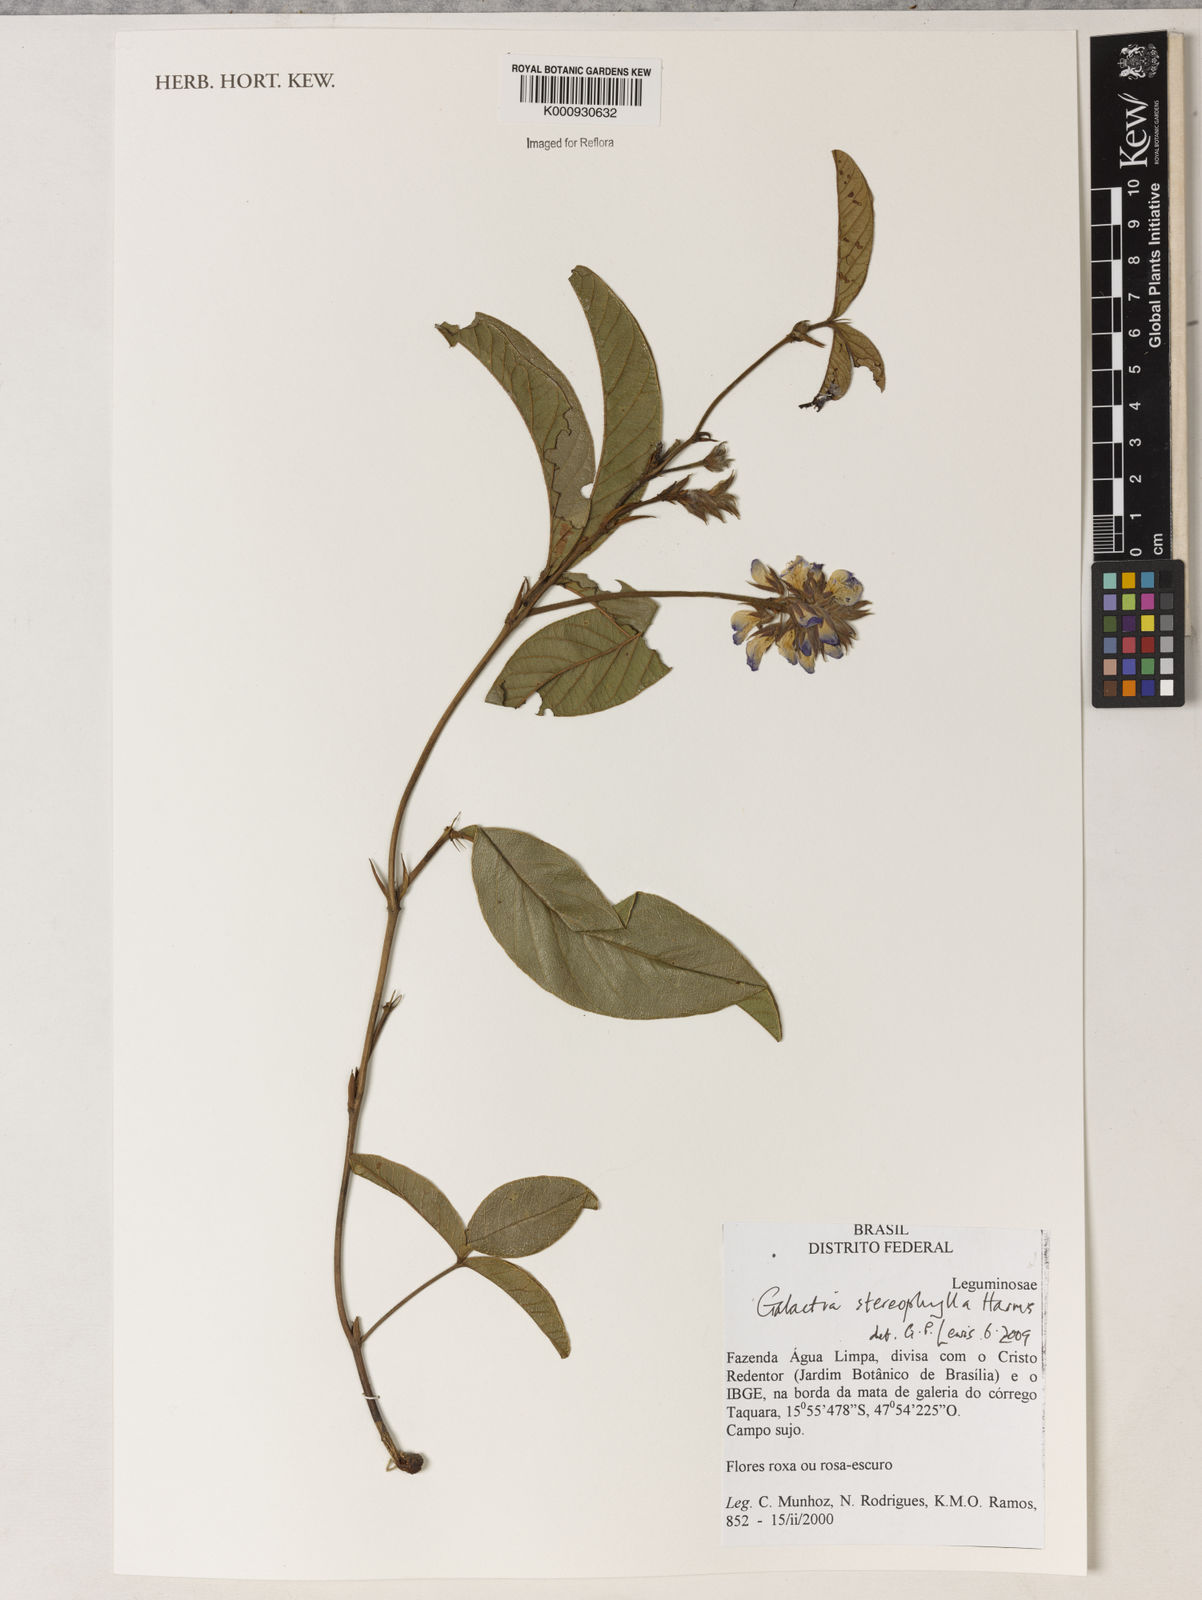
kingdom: Plantae
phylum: Tracheophyta
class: Magnoliopsida
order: Fabales
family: Fabaceae
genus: Betencourtia
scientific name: Betencourtia stereophylla
